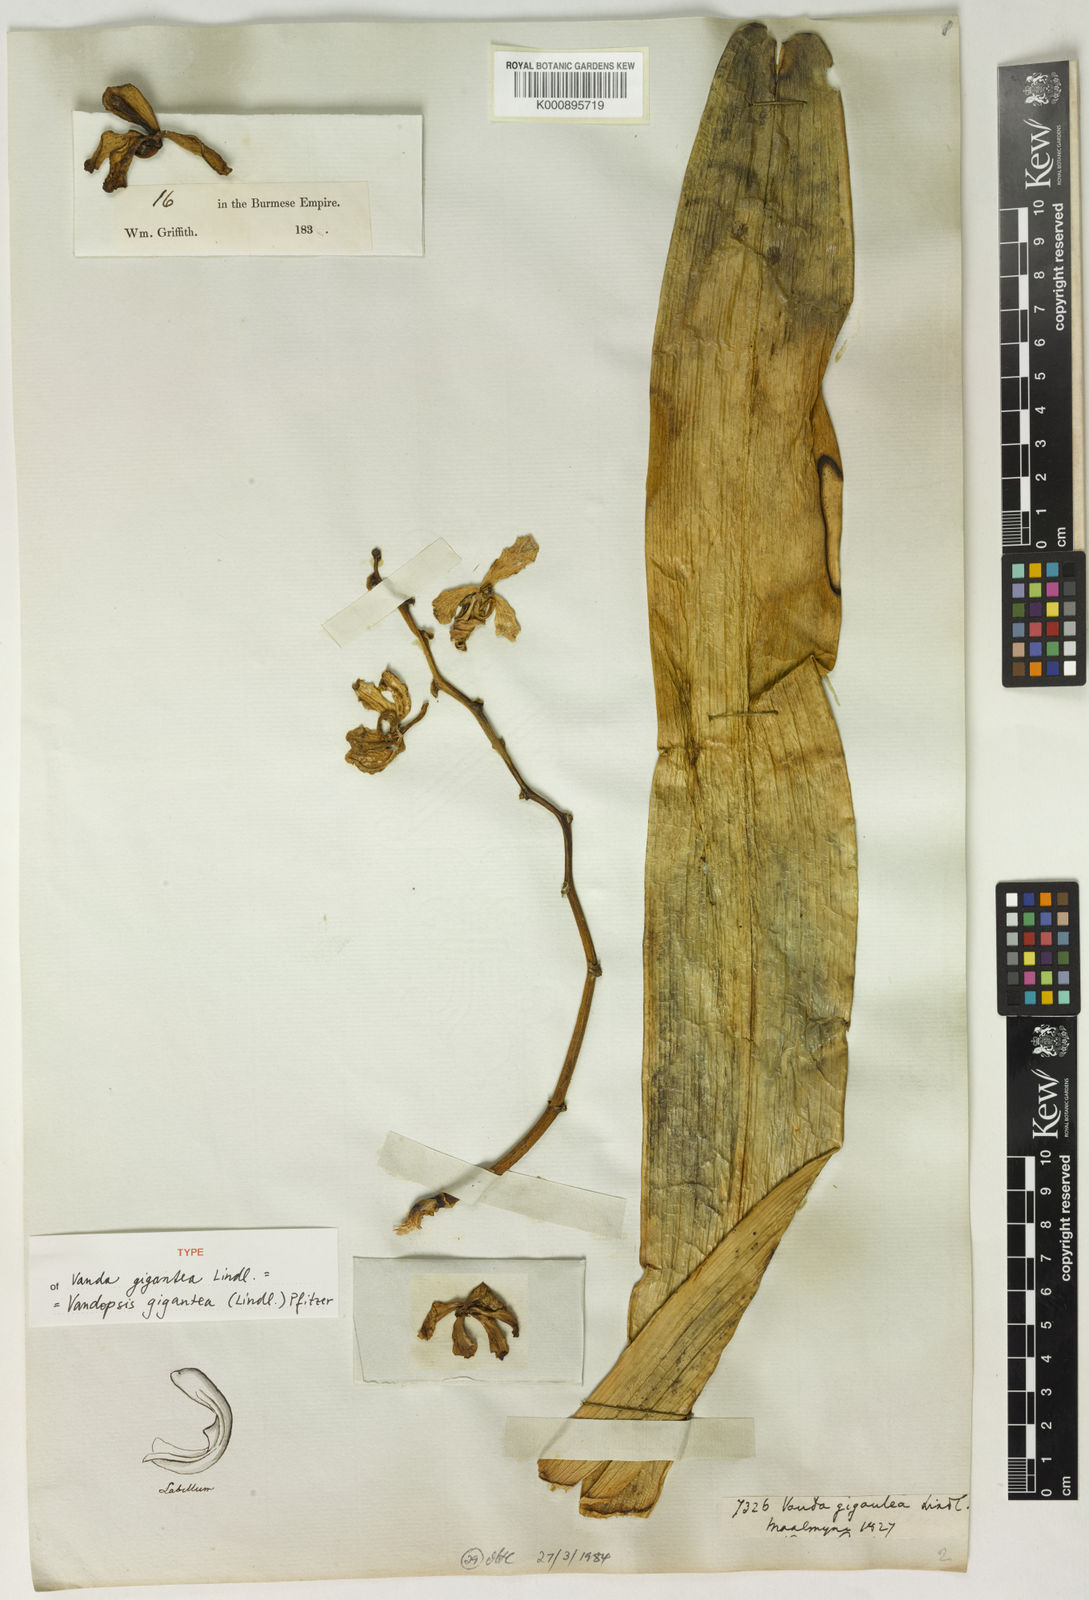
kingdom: Plantae
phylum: Tracheophyta
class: Liliopsida
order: Asparagales
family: Orchidaceae
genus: Vandopsis
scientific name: Vandopsis gigantea
